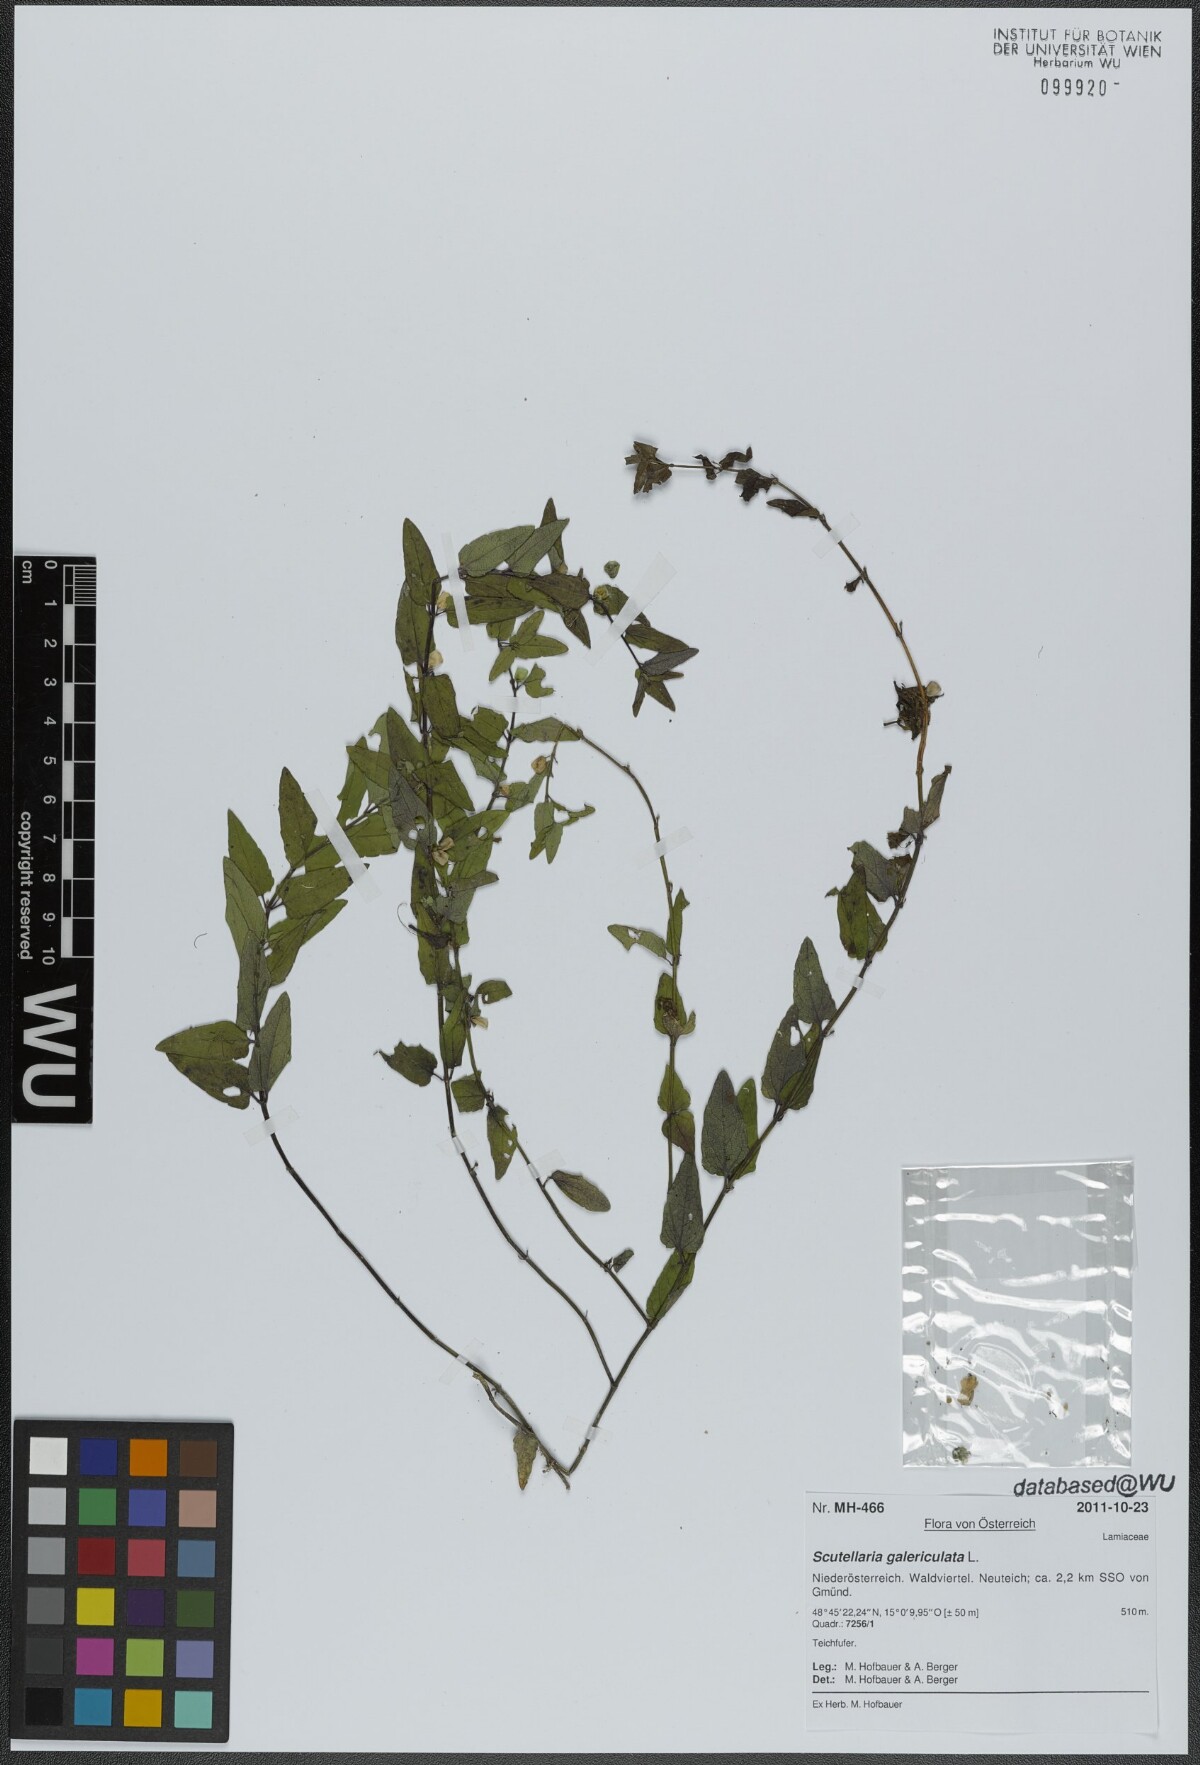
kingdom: Plantae
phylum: Tracheophyta
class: Magnoliopsida
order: Lamiales
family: Lamiaceae
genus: Scutellaria
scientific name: Scutellaria galericulata
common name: Skullcap
